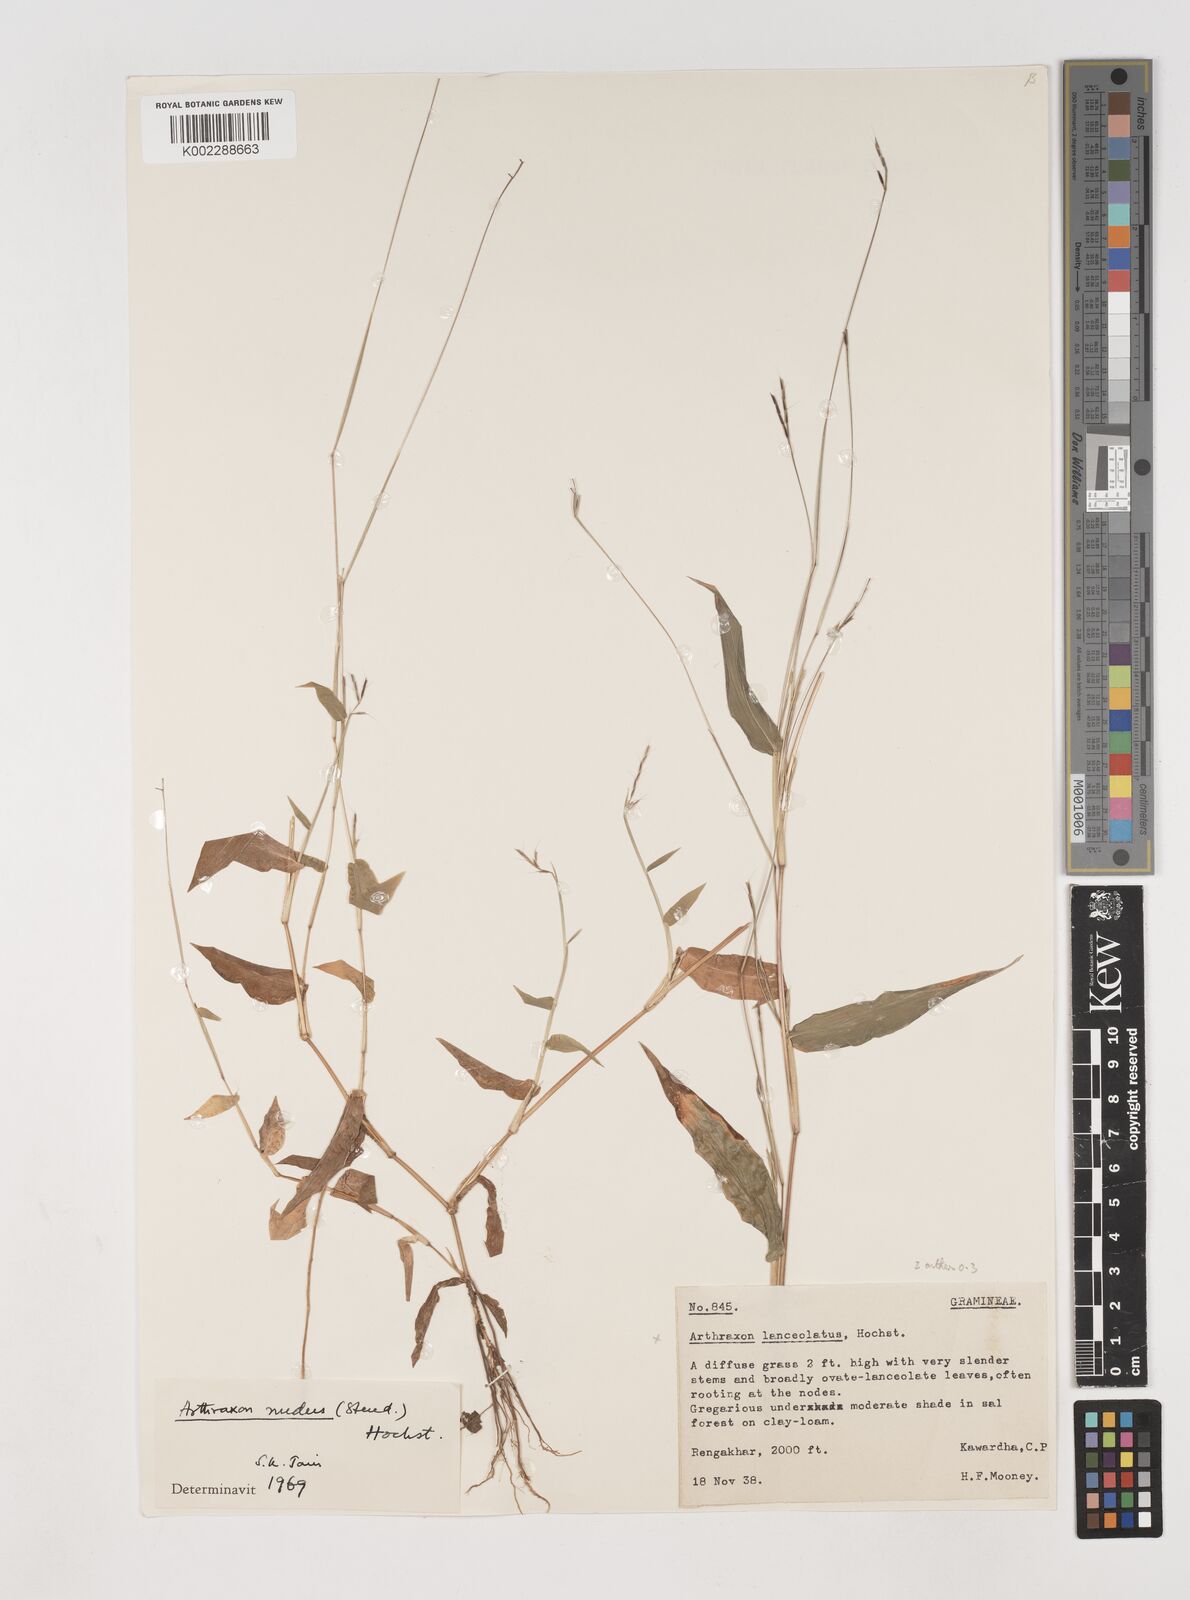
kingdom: Plantae
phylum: Tracheophyta
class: Liliopsida
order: Poales
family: Poaceae
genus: Arthraxon
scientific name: Arthraxon nudus
